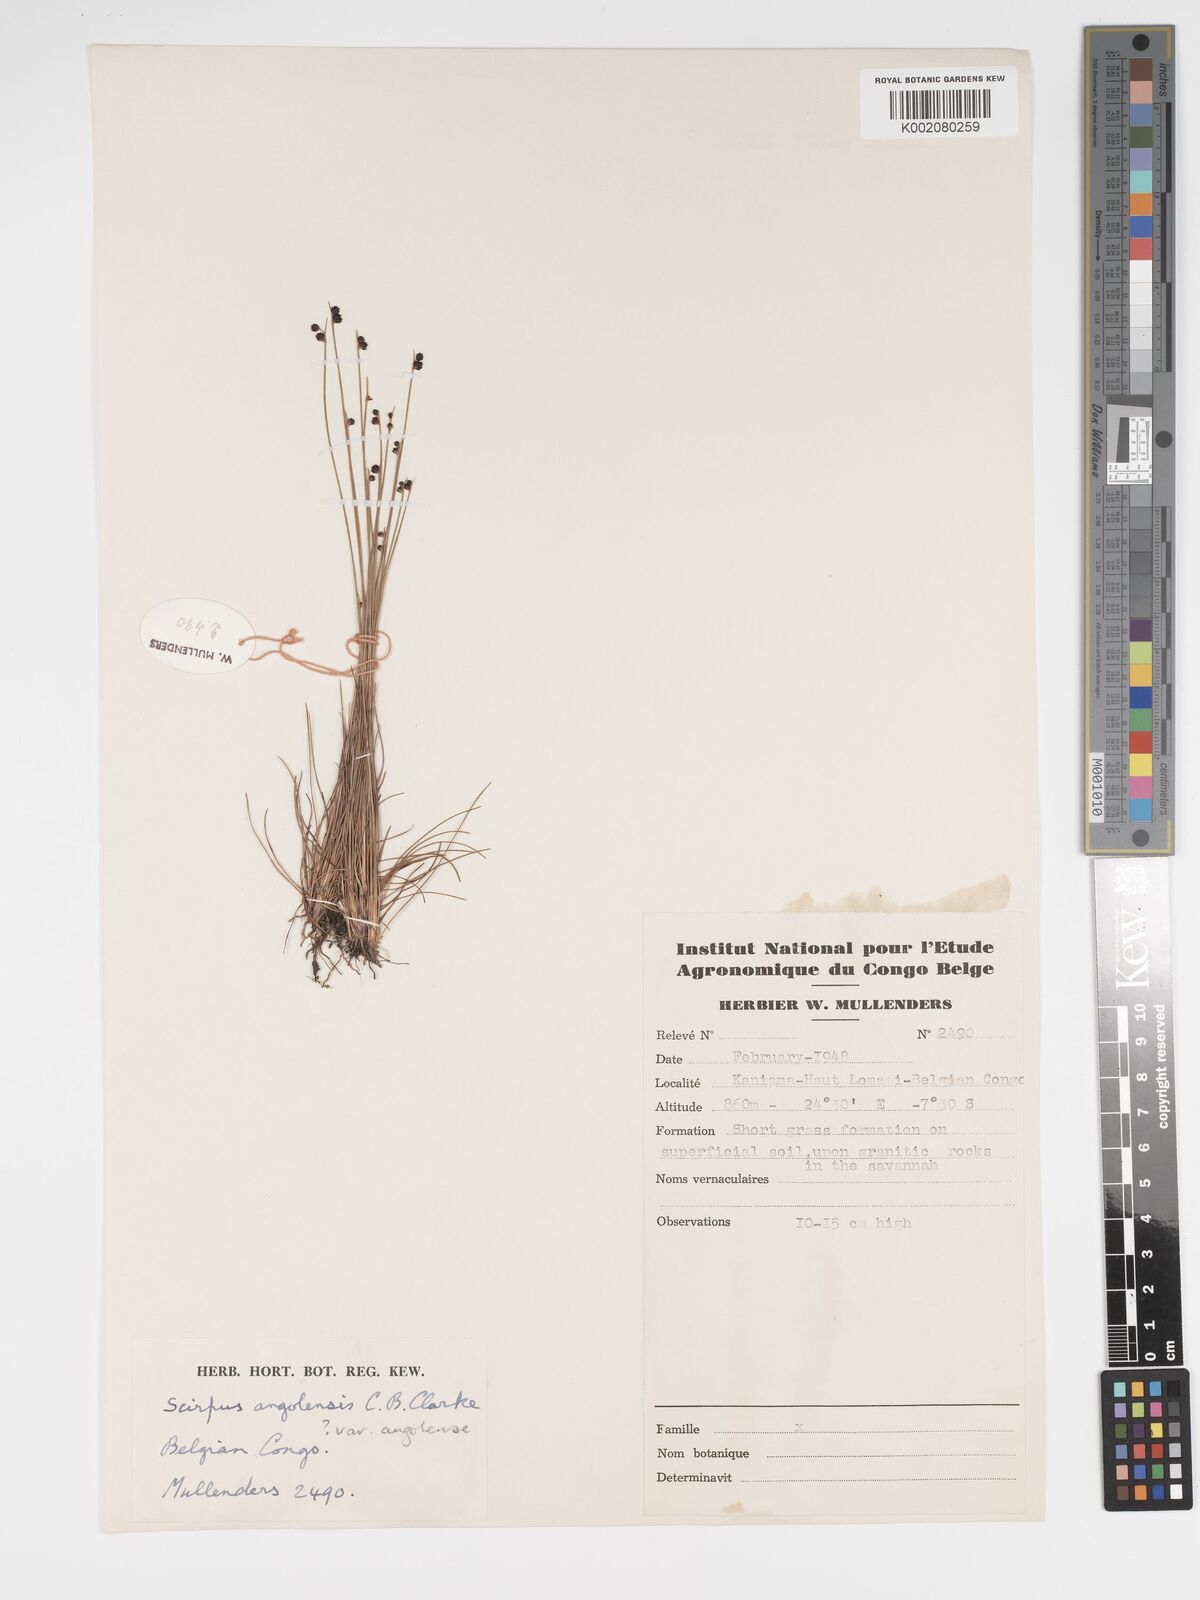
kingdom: Plantae
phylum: Tracheophyta
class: Liliopsida
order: Poales
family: Cyperaceae
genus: Bulbostylis
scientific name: Bulbostylis angolensis
